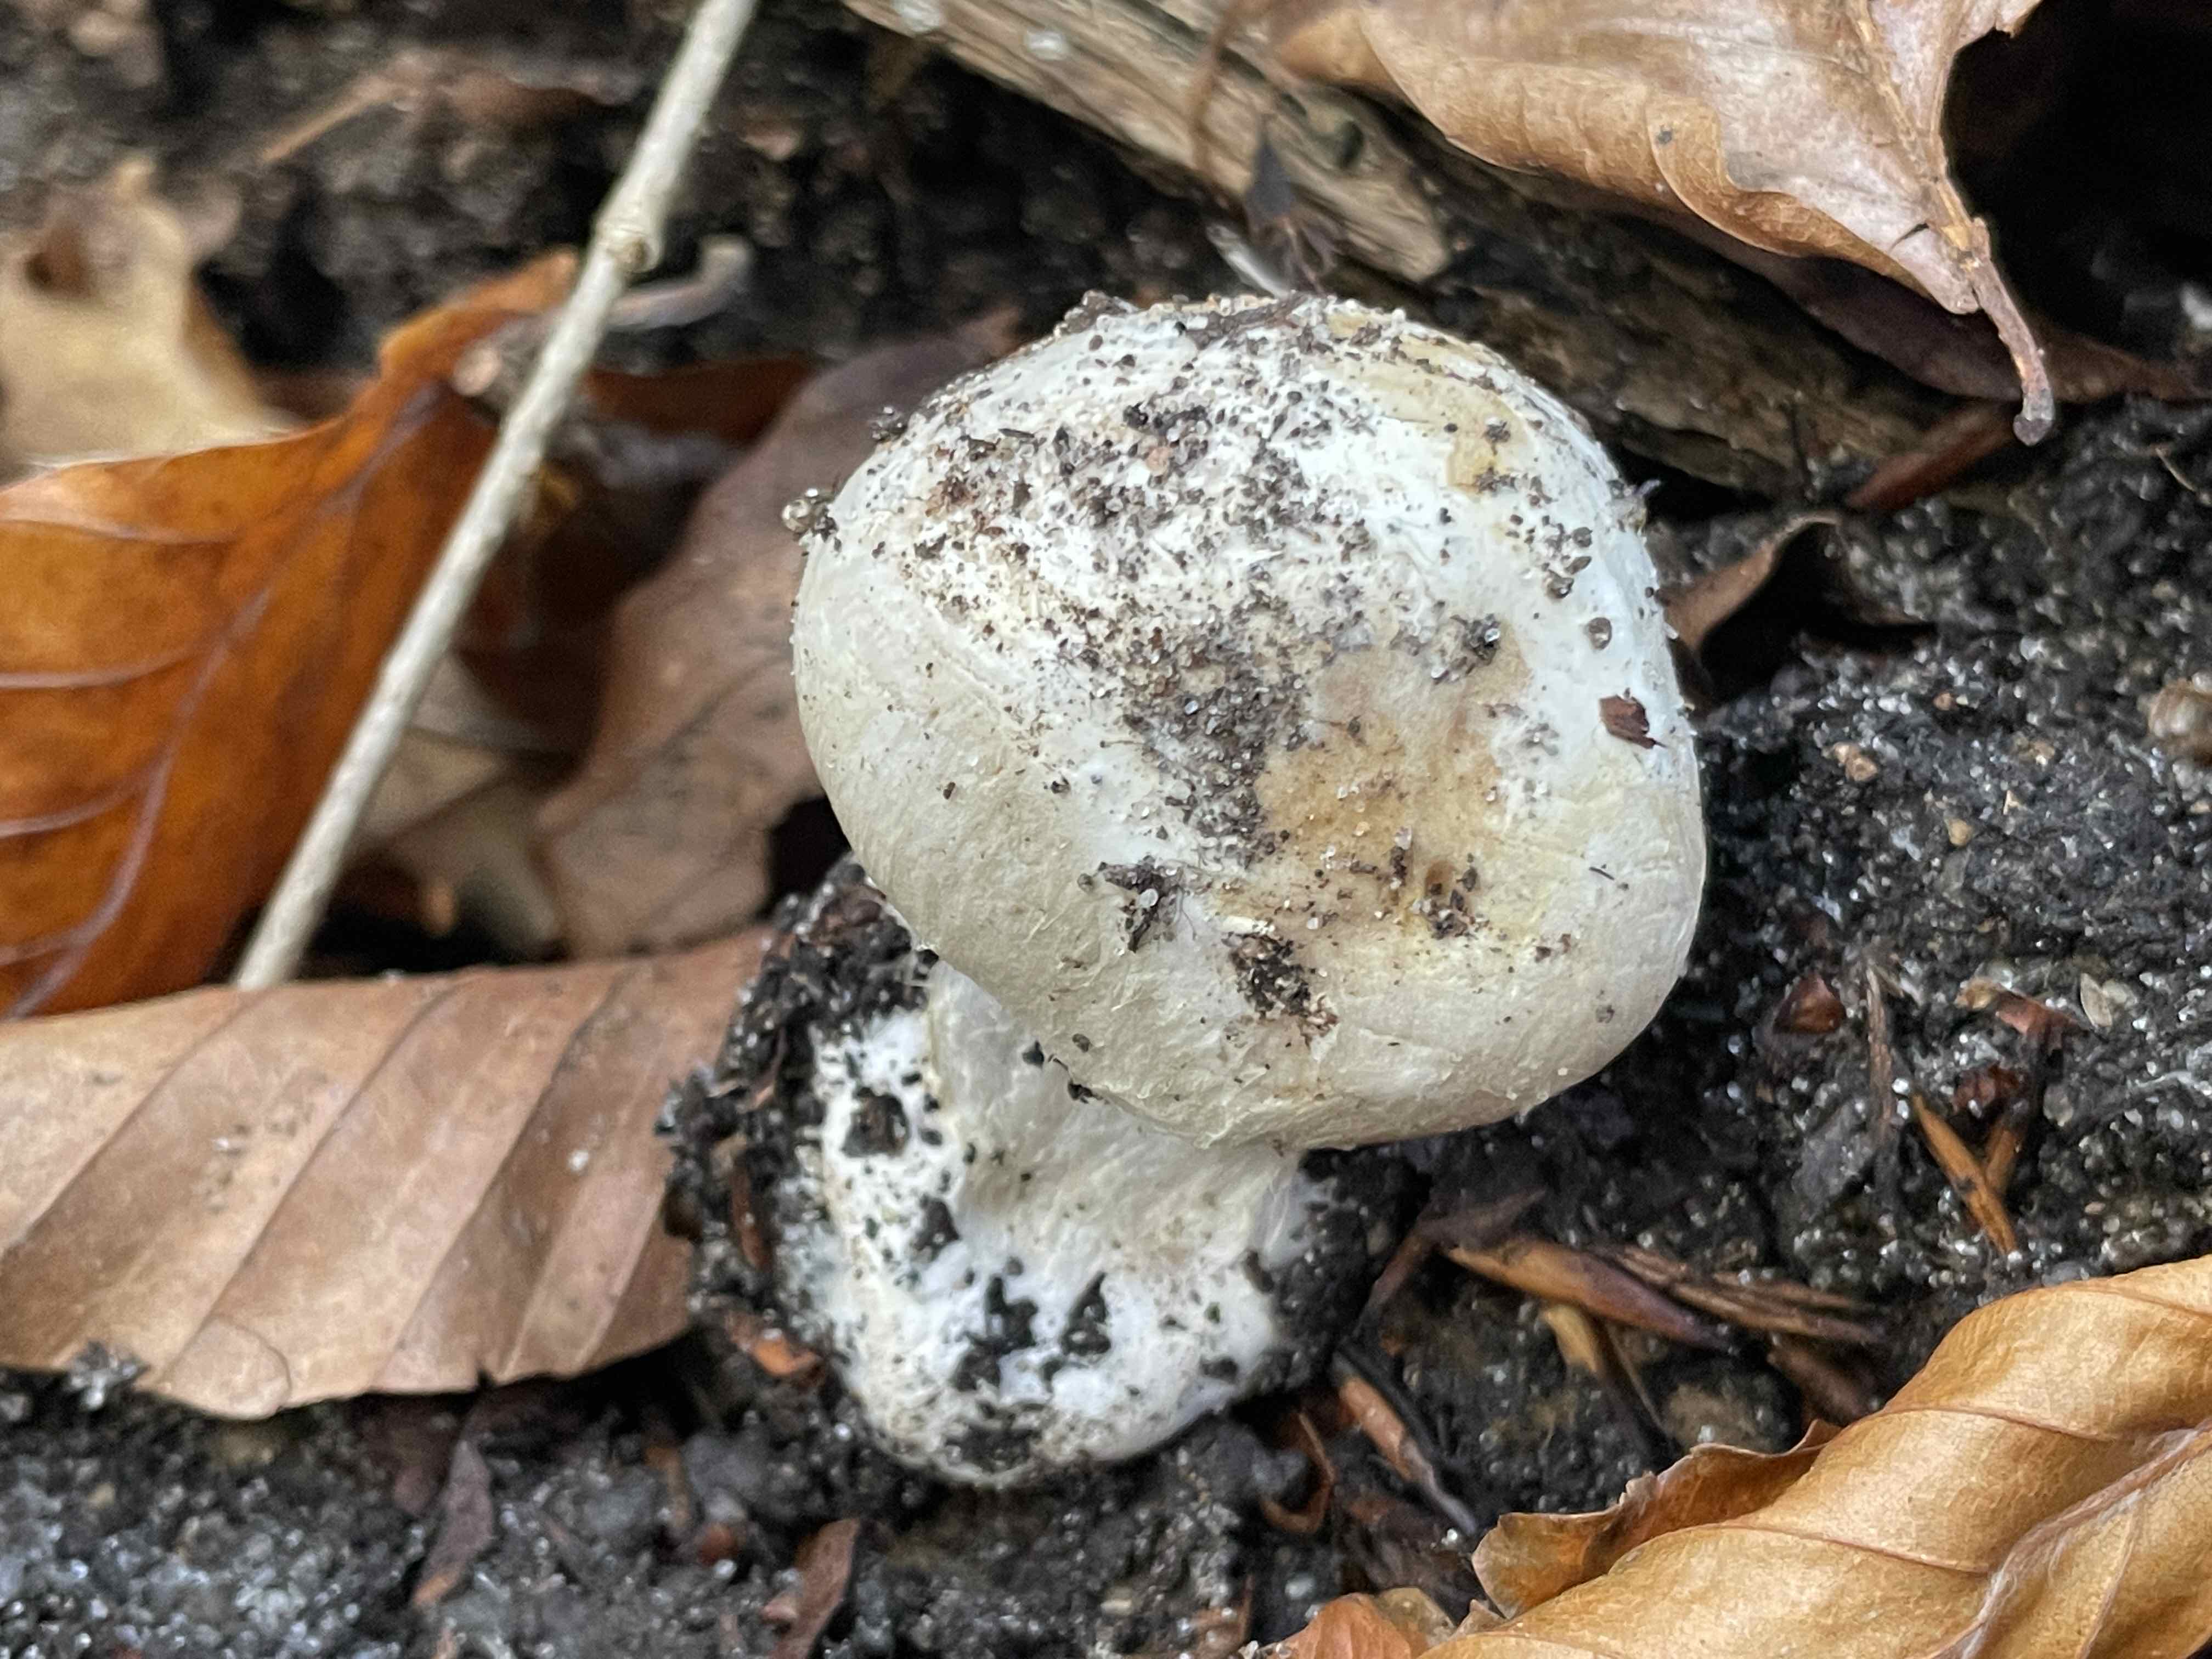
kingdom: Fungi
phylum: Basidiomycota
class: Agaricomycetes
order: Agaricales
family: Cortinariaceae
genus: Cortinarius
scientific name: Cortinarius foetens
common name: stribet slørhat
